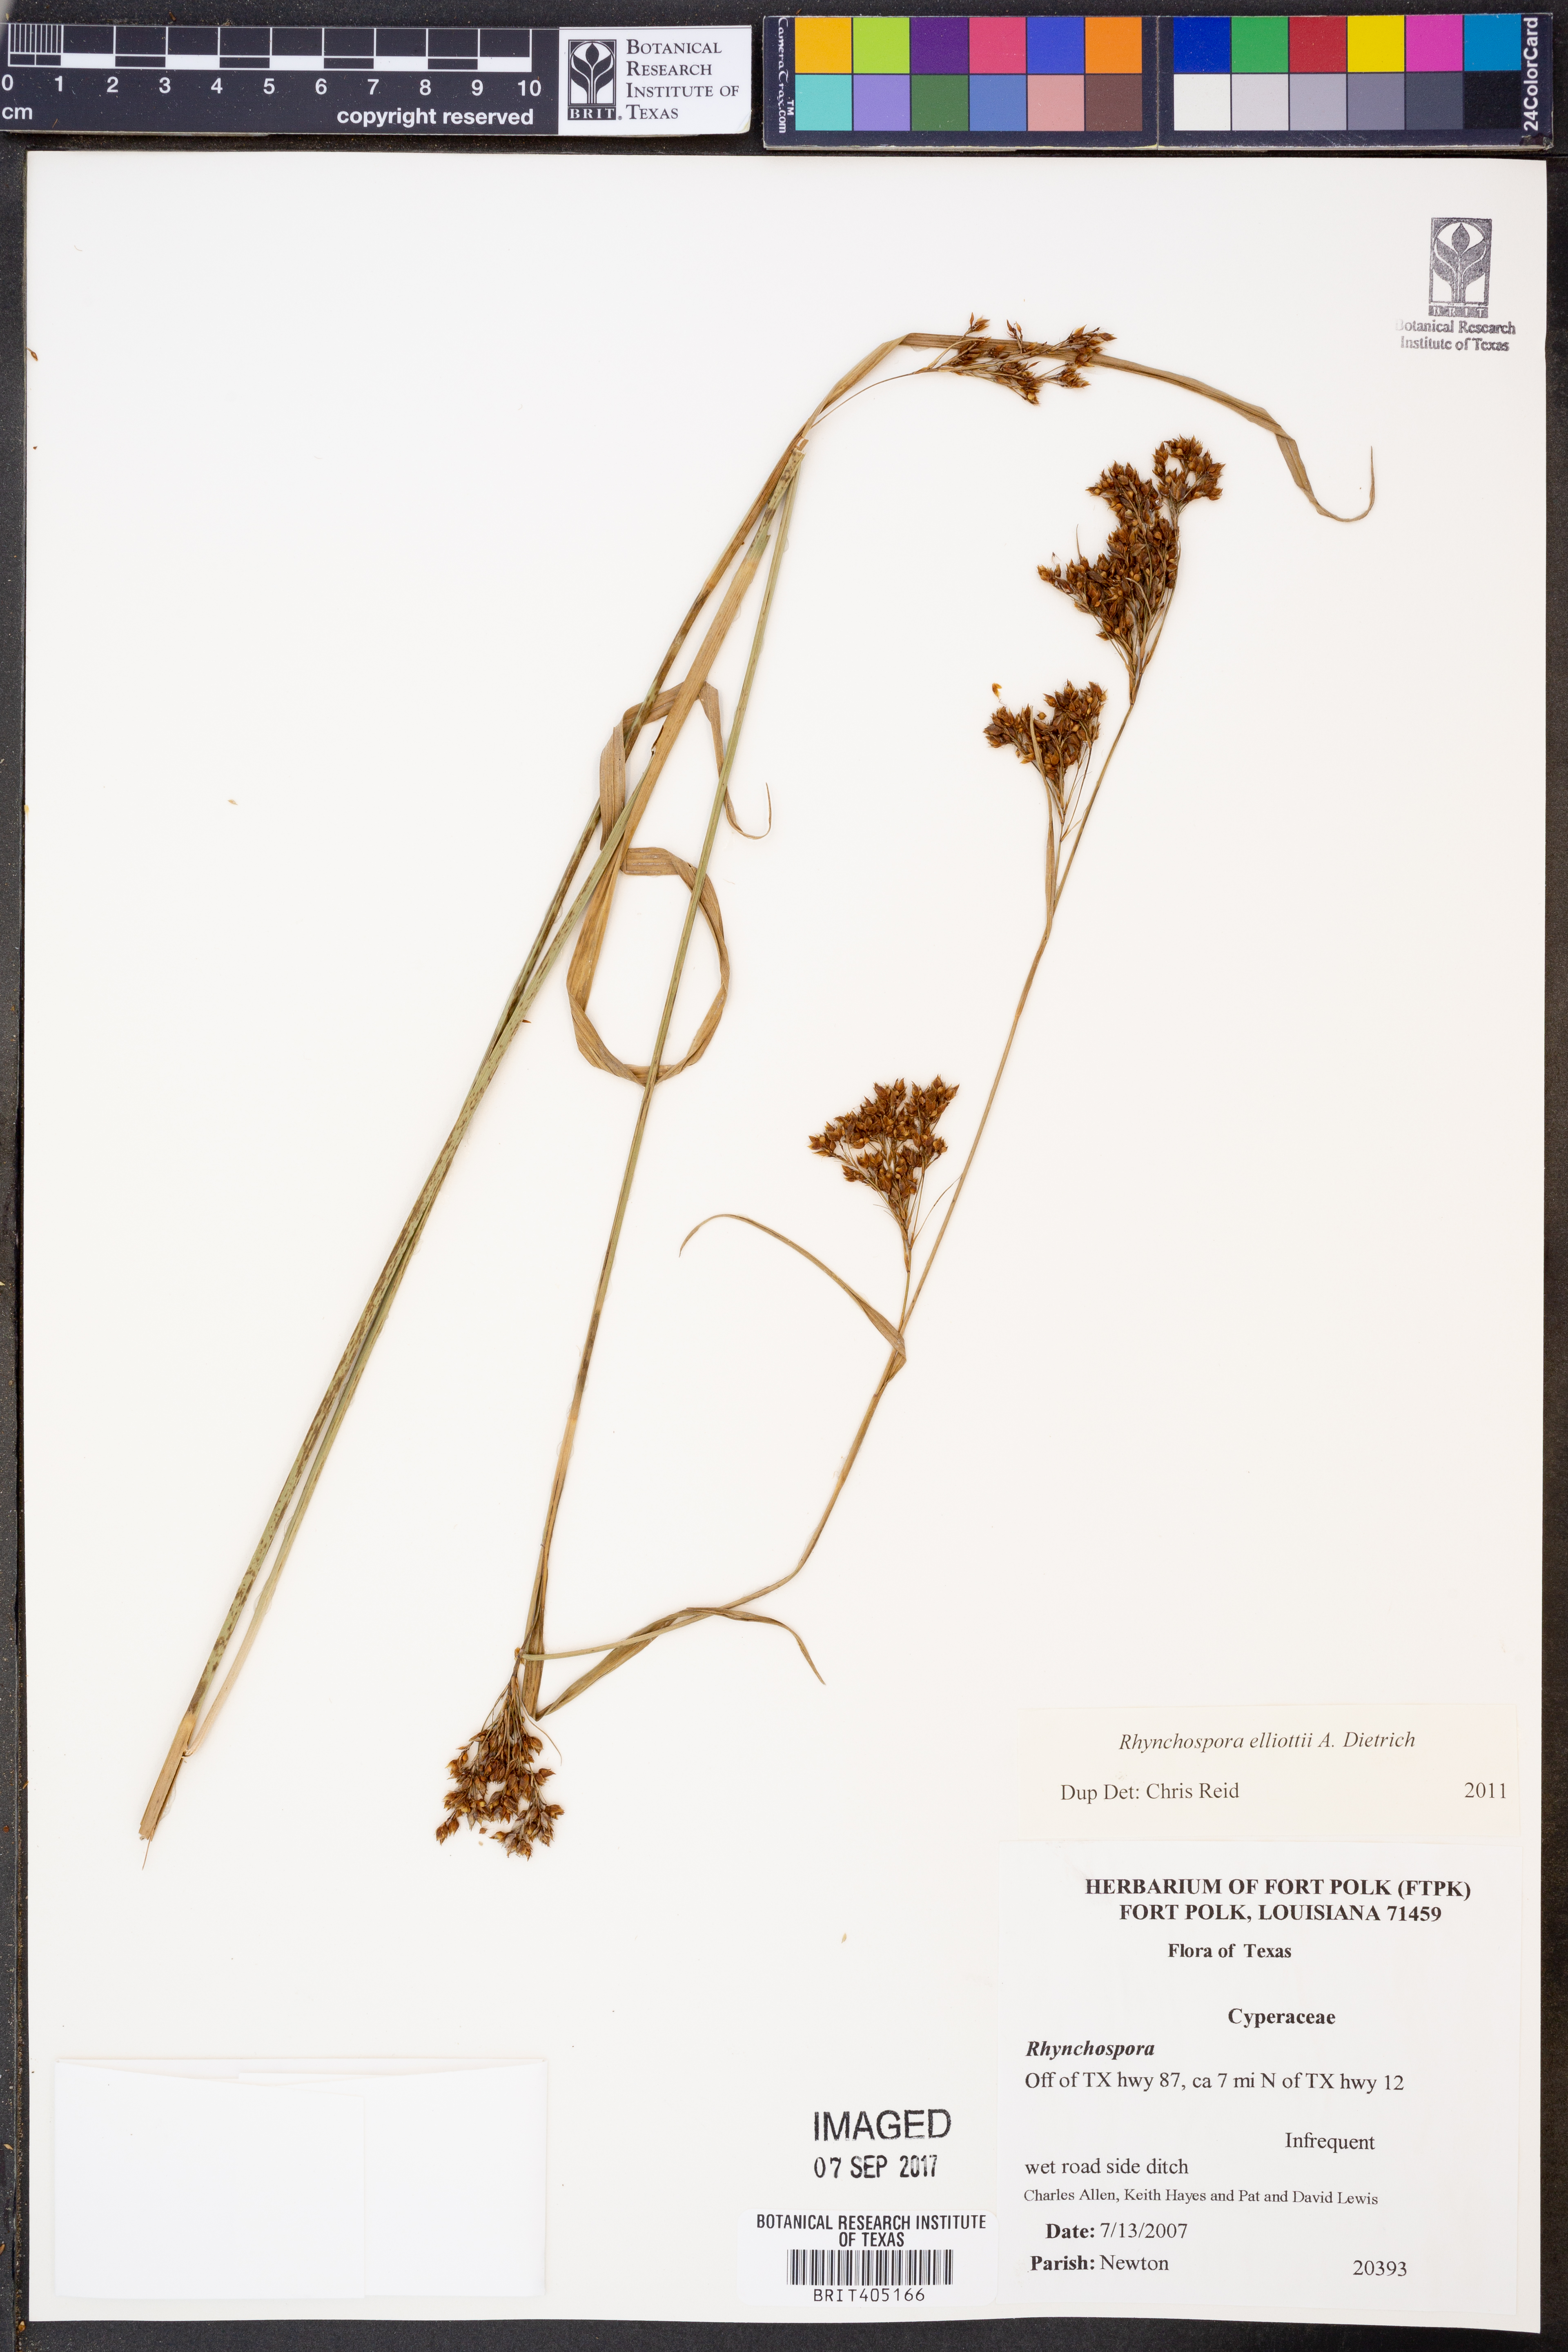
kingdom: Plantae
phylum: Tracheophyta
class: Liliopsida
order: Poales
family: Cyperaceae
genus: Rhynchospora
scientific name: Rhynchospora elliottii
